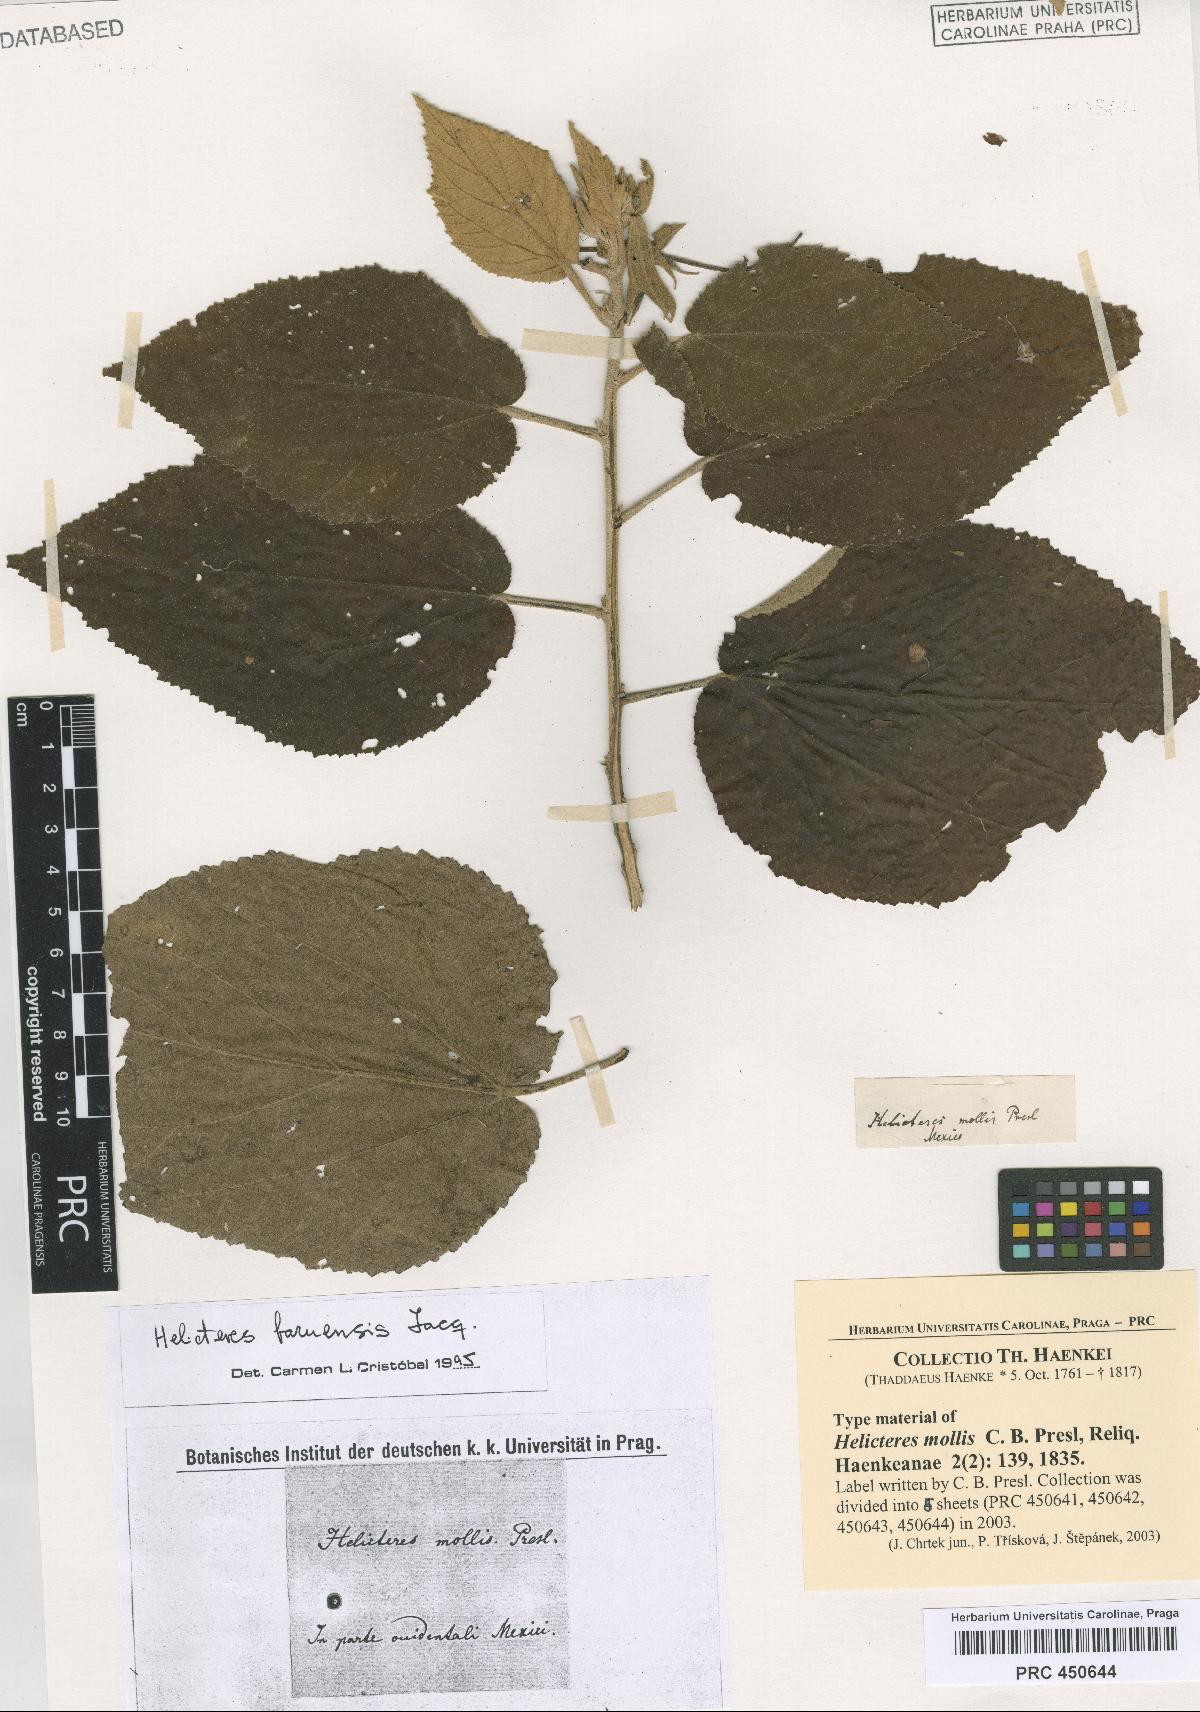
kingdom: Plantae
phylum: Tracheophyta
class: Magnoliopsida
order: Malvales
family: Malvaceae
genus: Helicteres
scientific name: Helicteres baruensis
